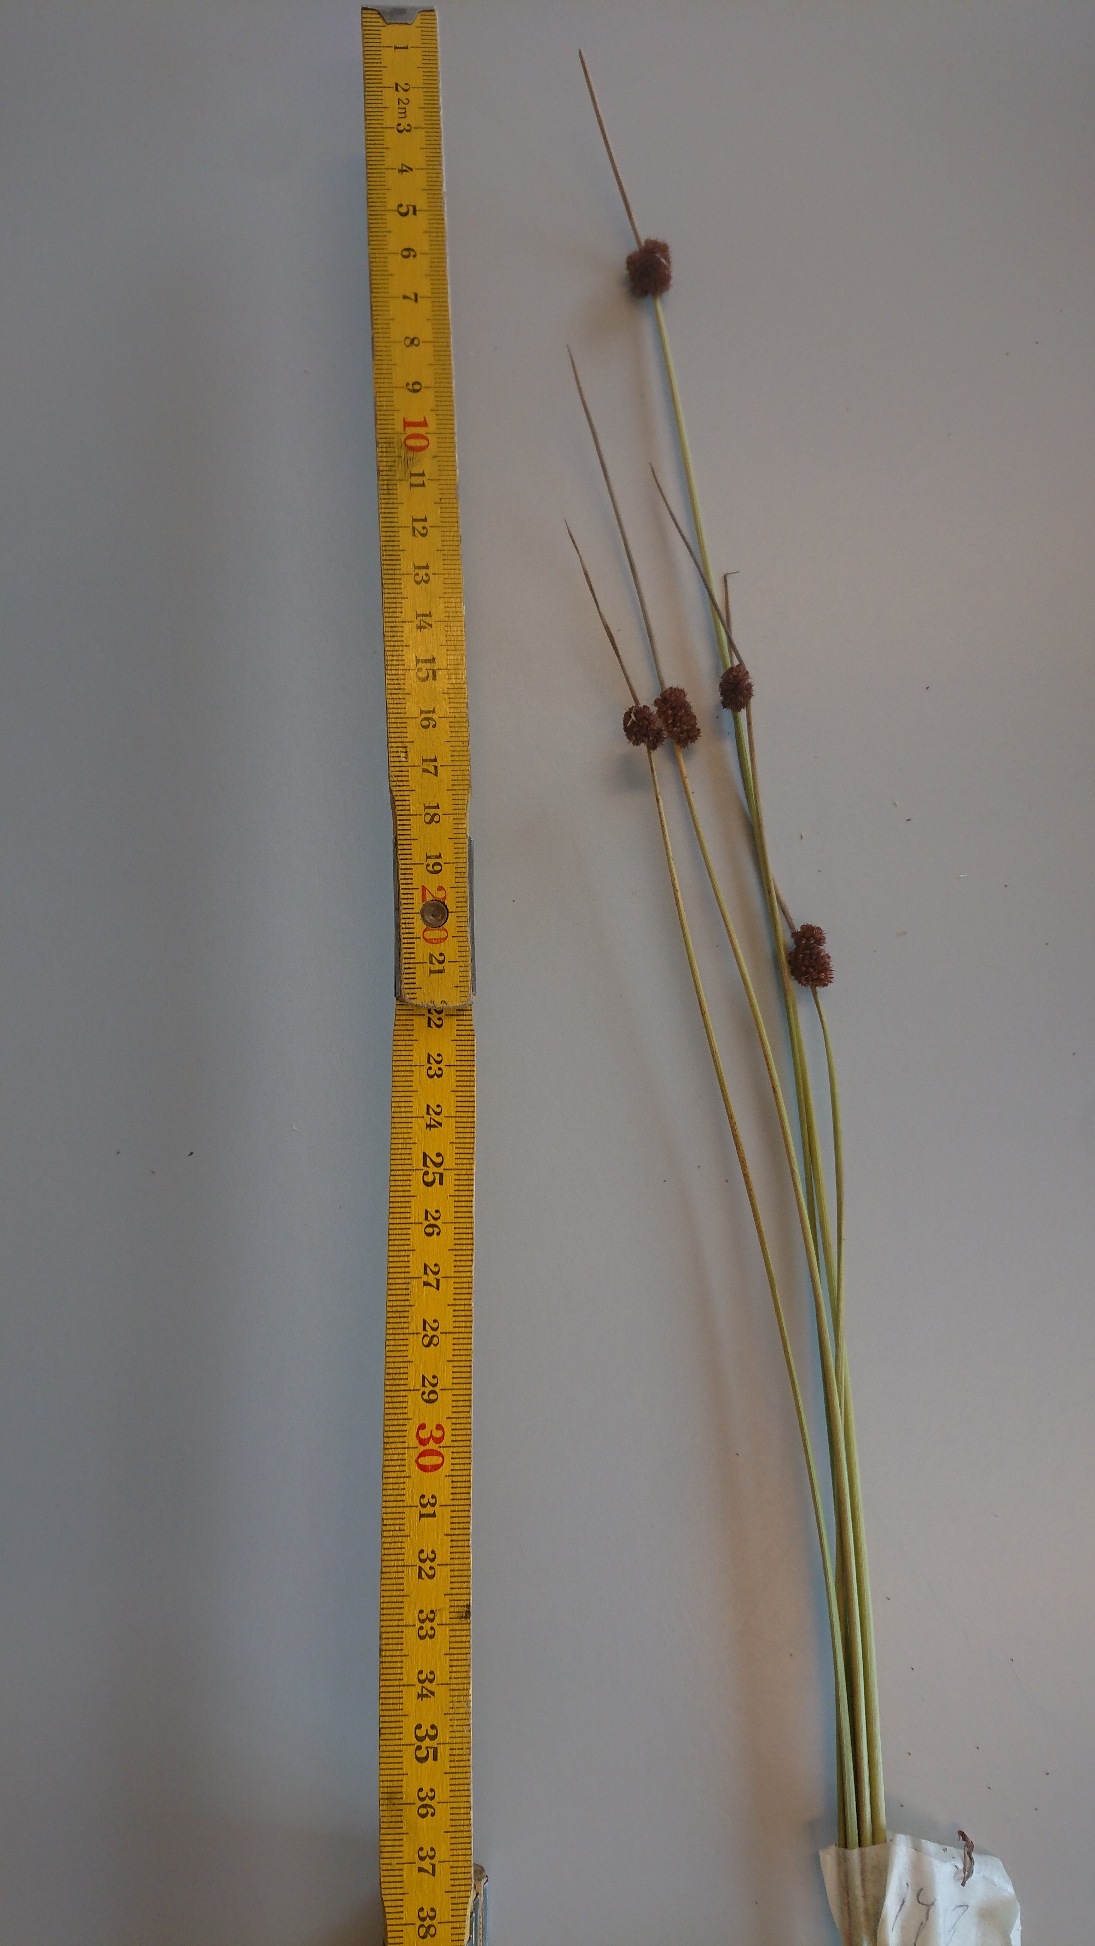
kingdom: Plantae
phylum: Tracheophyta
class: Liliopsida
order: Poales
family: Juncaceae
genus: Juncus
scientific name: Juncus conglomeratus
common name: Knop-siv
